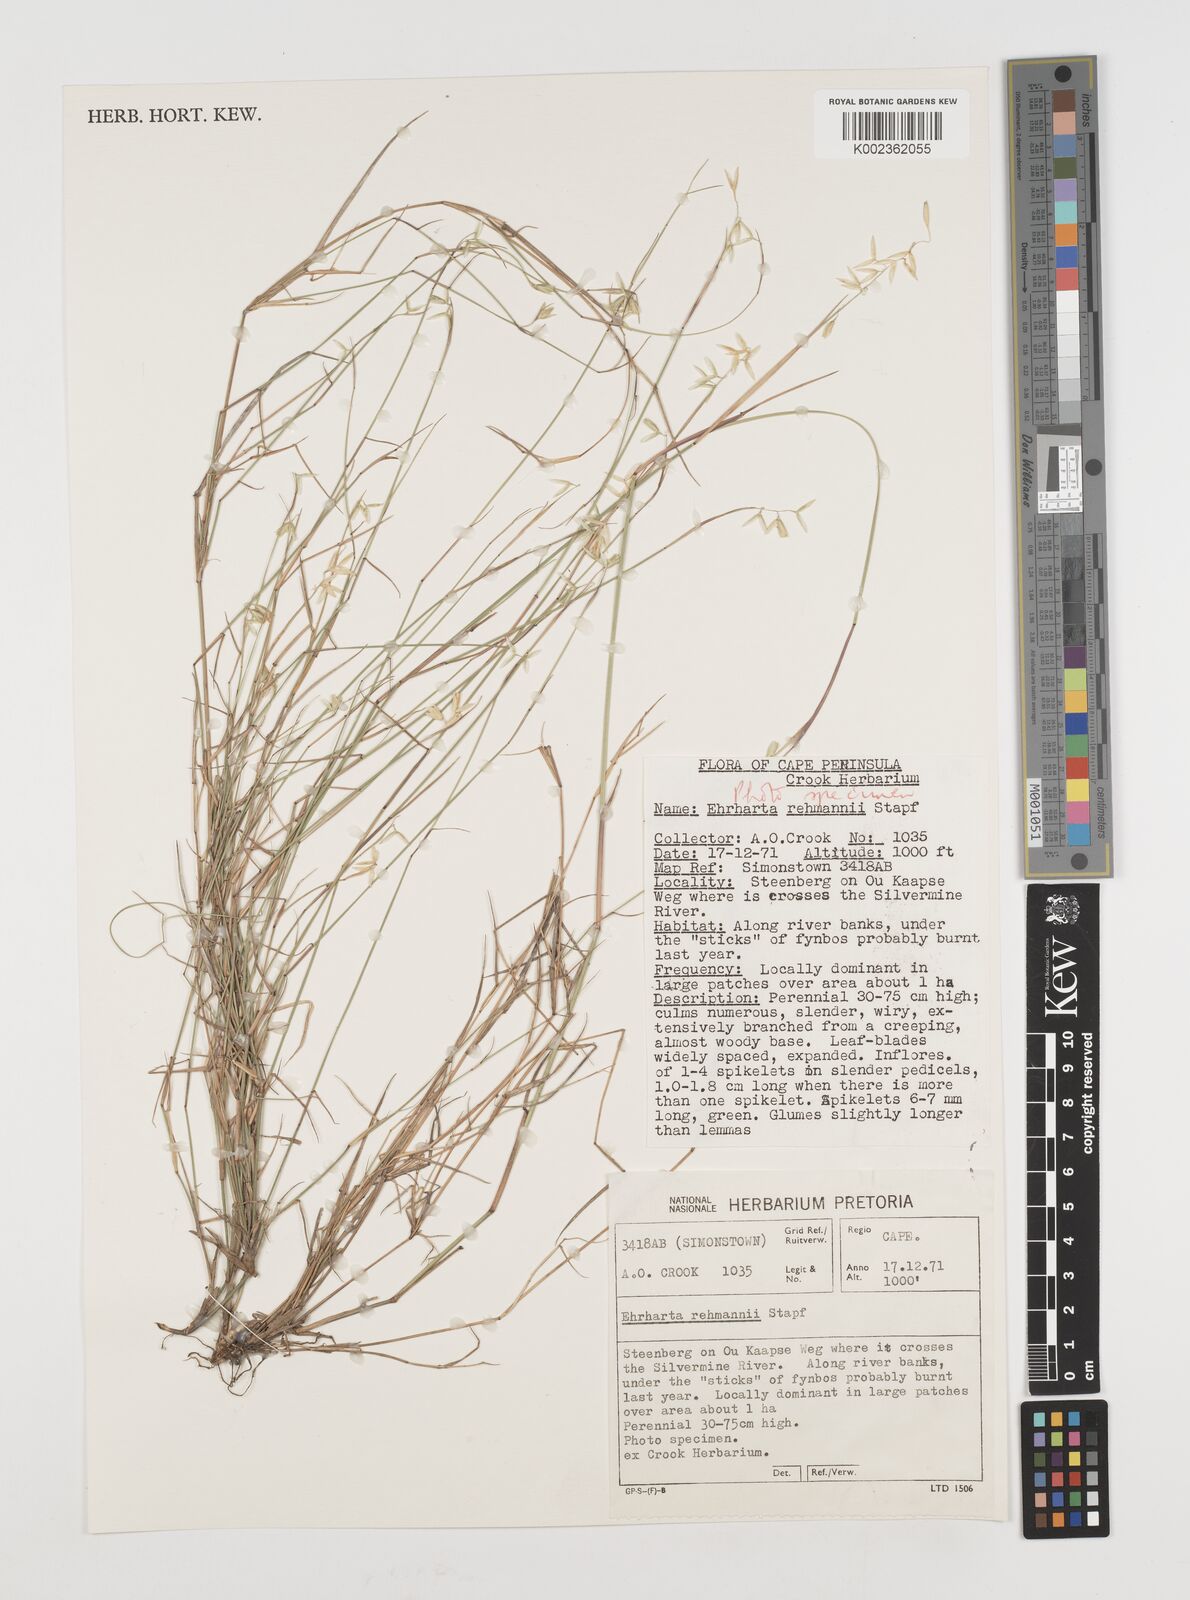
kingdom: Plantae
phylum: Tracheophyta
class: Liliopsida
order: Poales
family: Poaceae
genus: Ehrharta
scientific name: Ehrharta rehmannii
